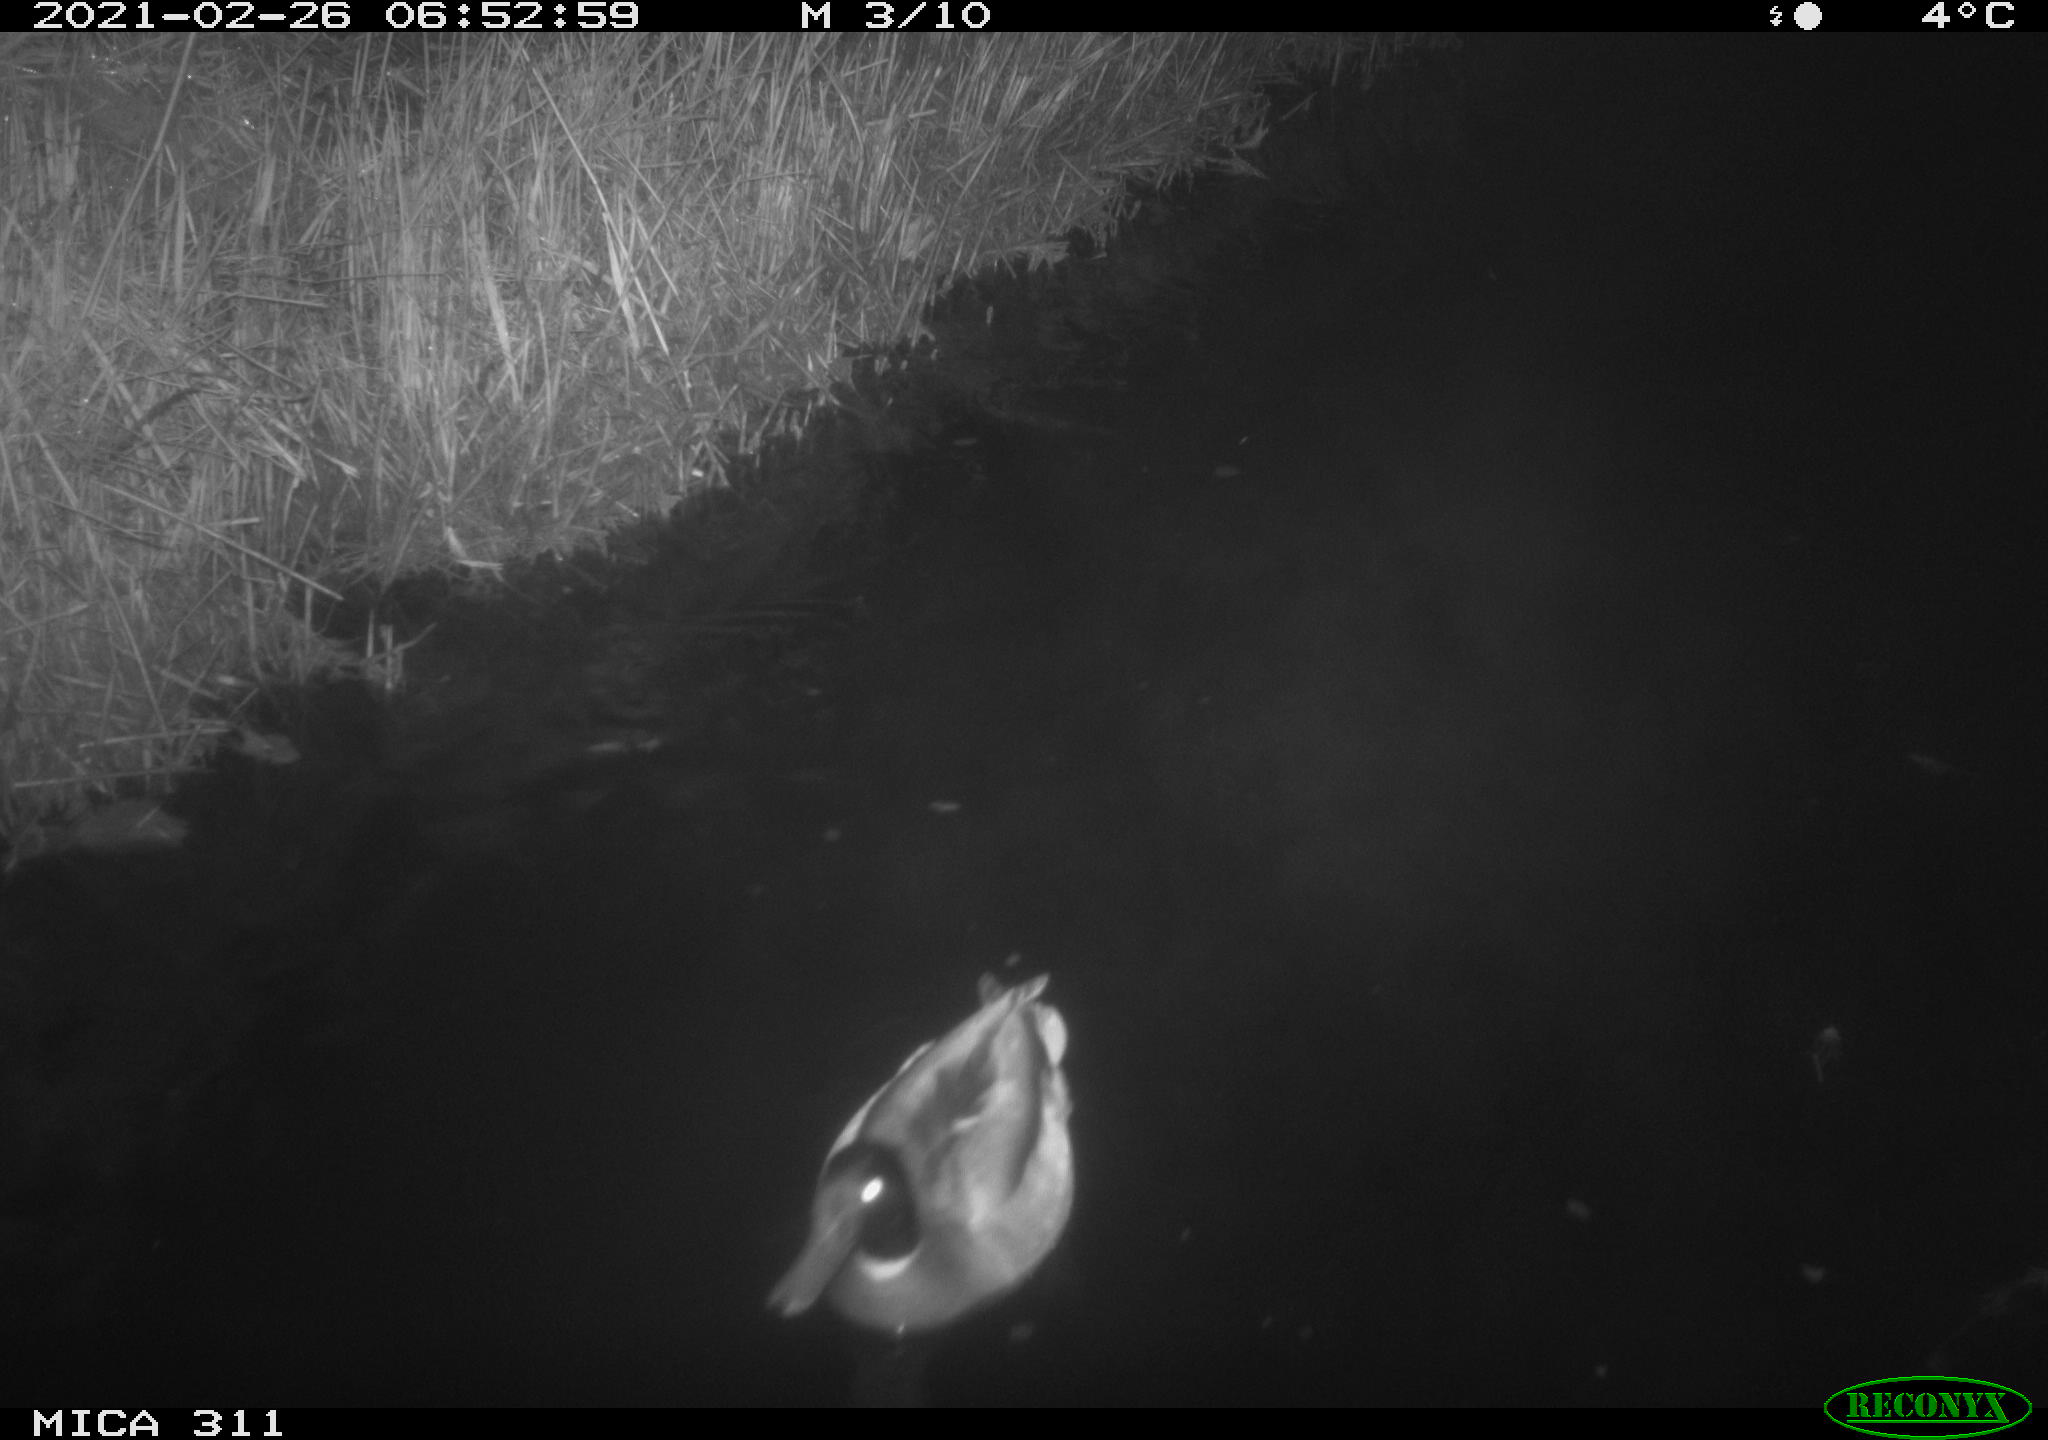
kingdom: Animalia
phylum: Chordata
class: Aves
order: Anseriformes
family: Anatidae
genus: Anas
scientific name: Anas platyrhynchos
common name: Mallard
